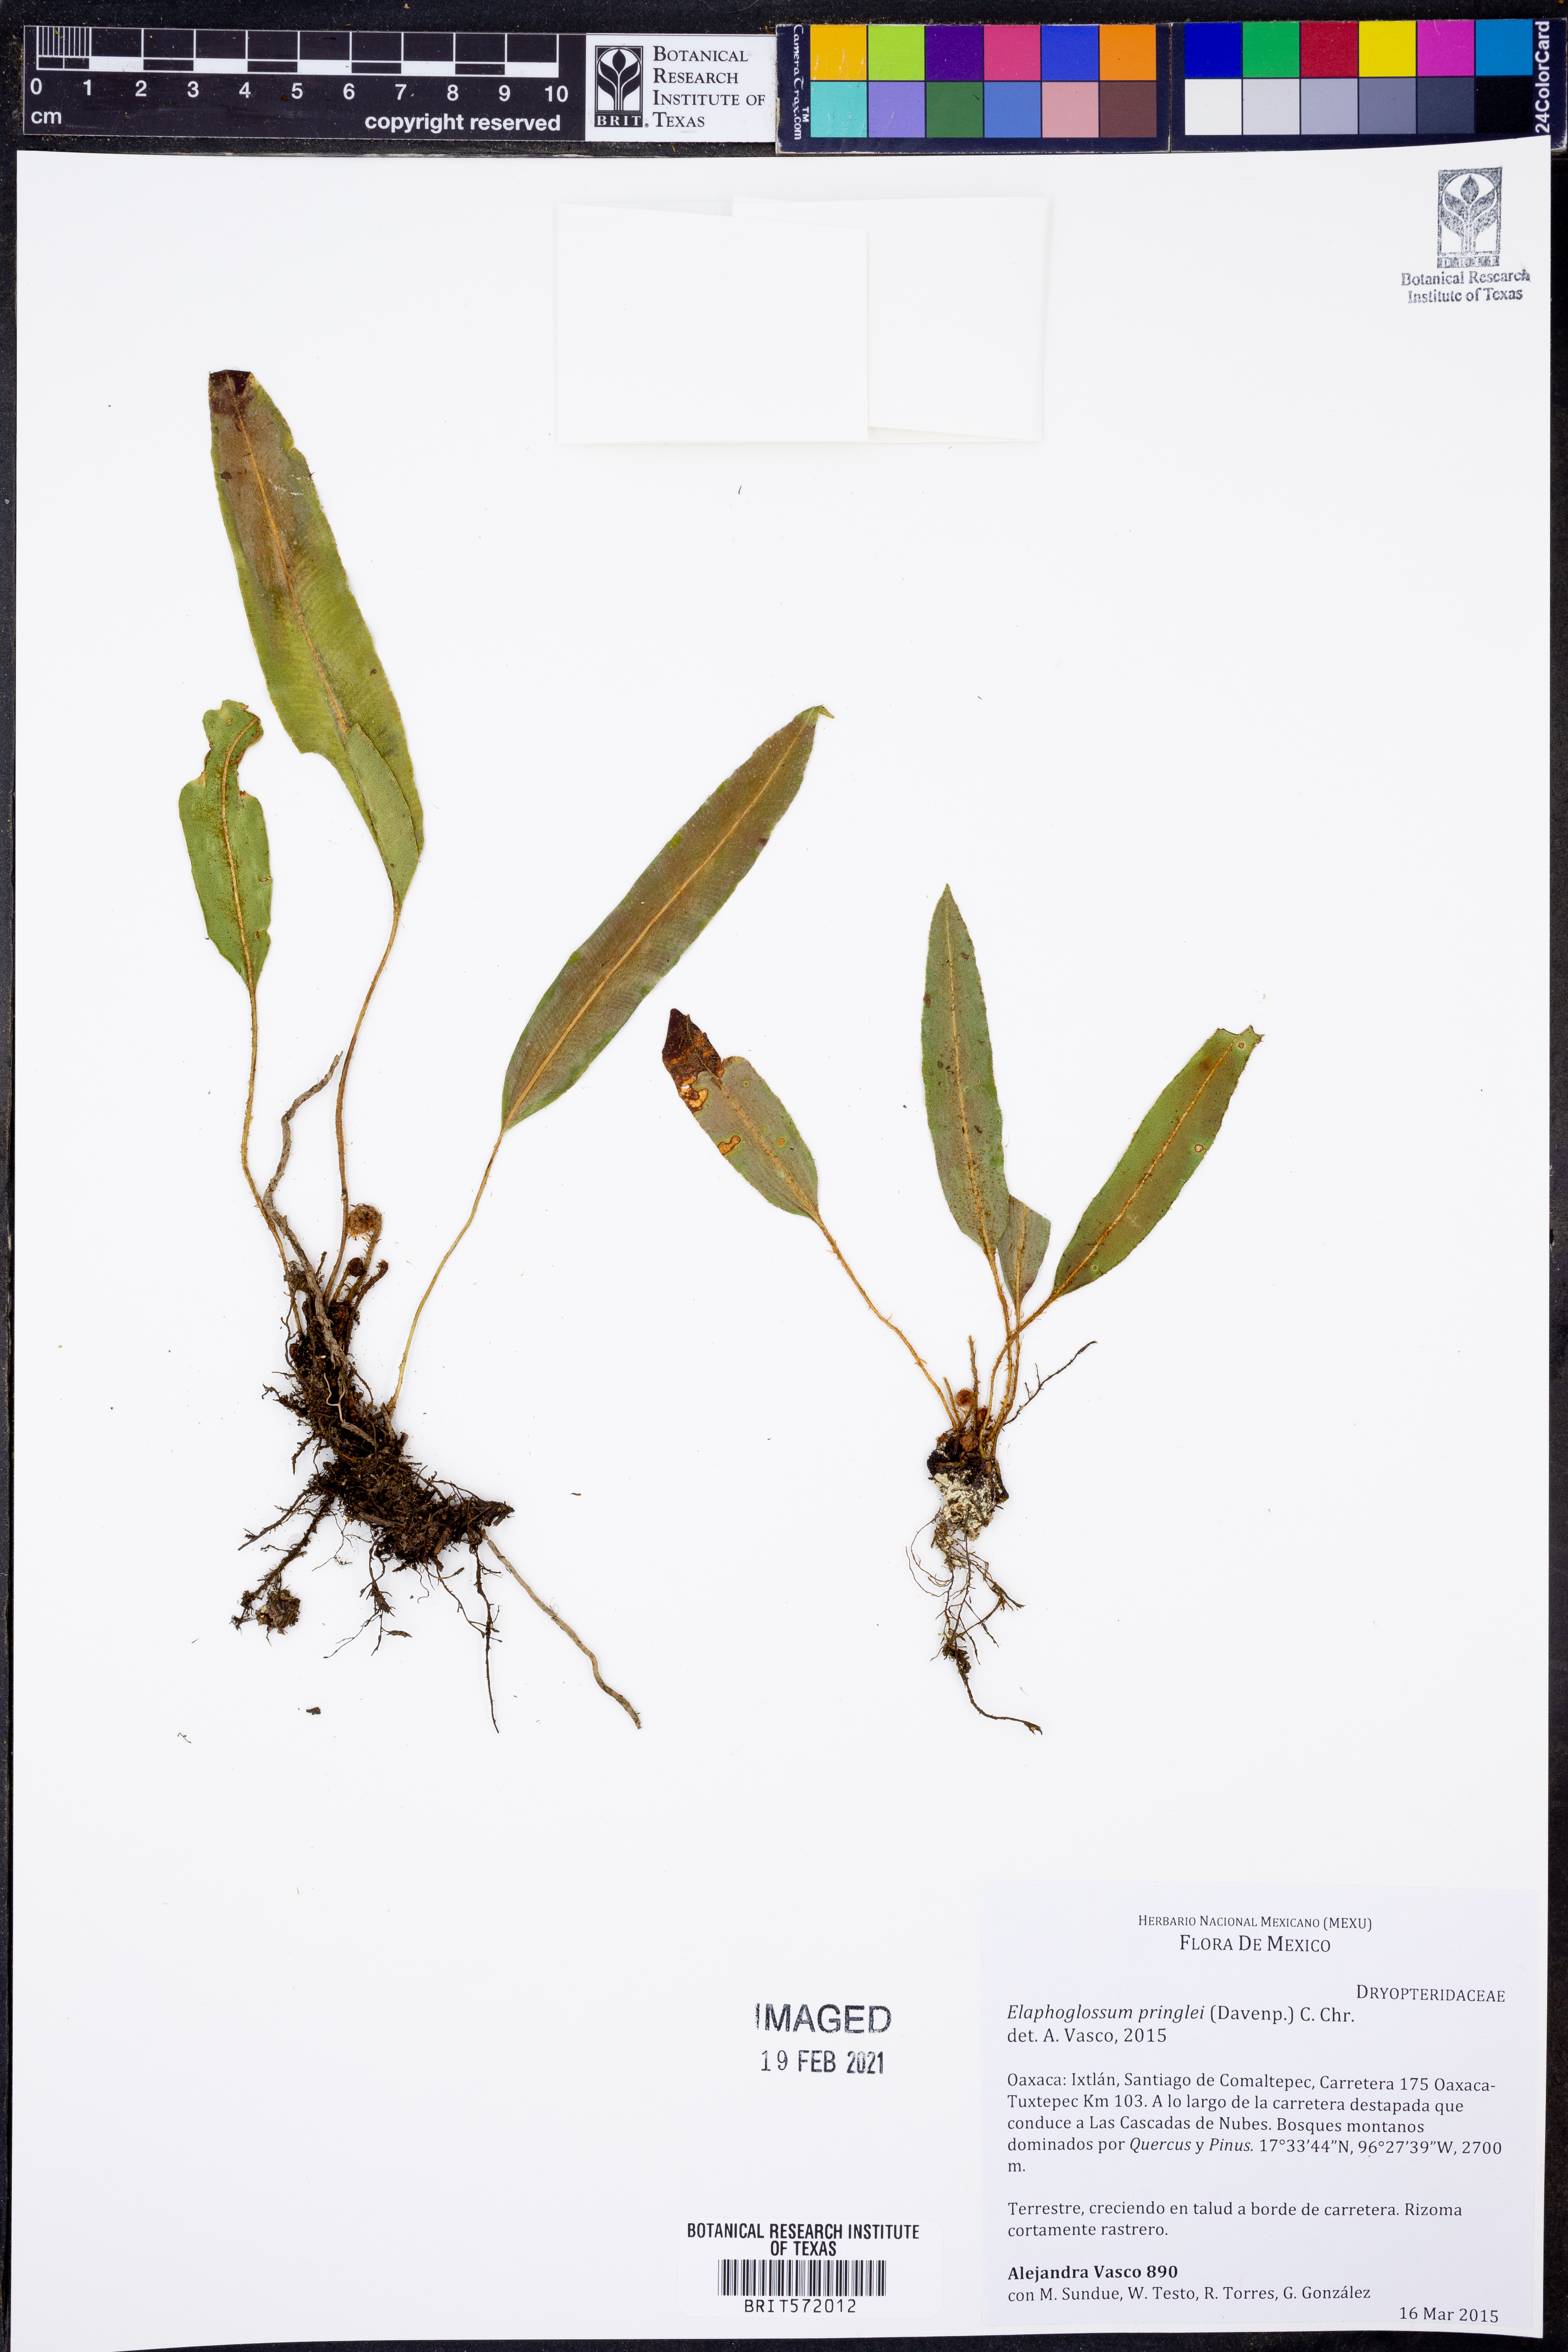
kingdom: Plantae
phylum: Tracheophyta
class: Polypodiopsida
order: Polypodiales
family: Dryopteridaceae
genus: Elaphoglossum
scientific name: Elaphoglossum petiolatum
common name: Graceful tonguefern
